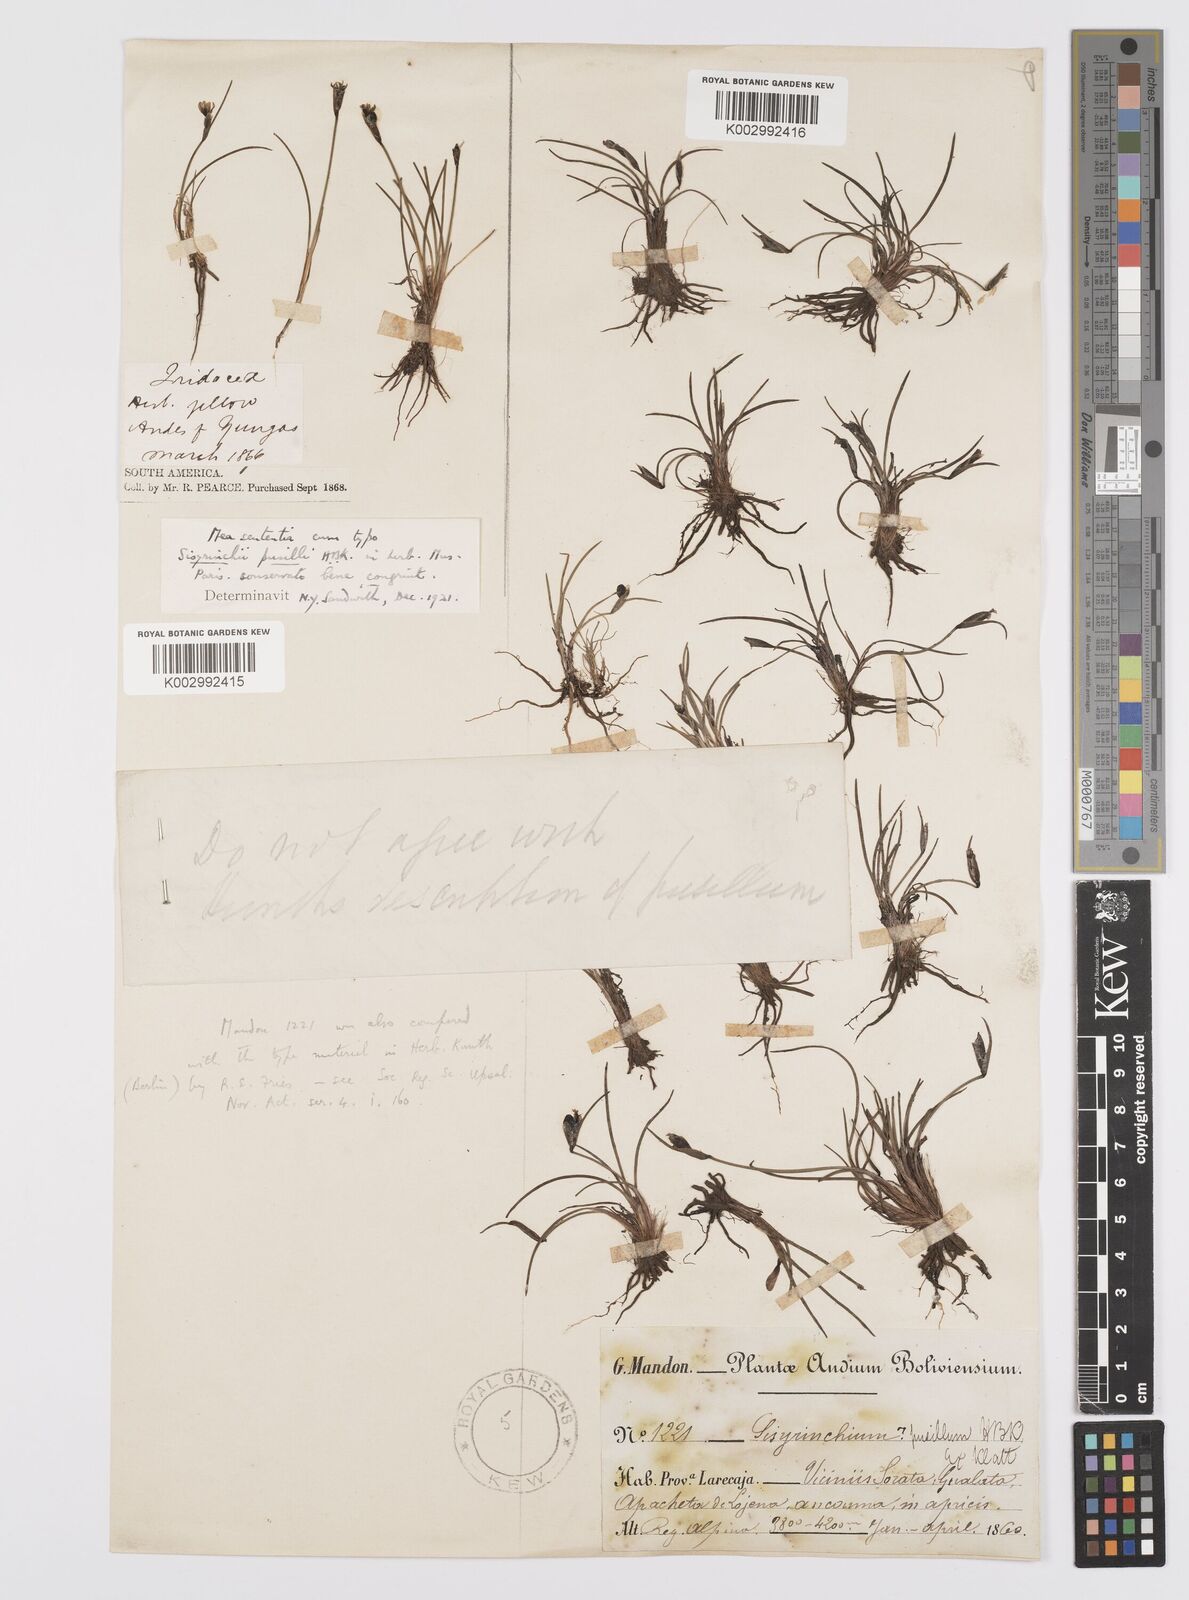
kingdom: Plantae
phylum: Tracheophyta
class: Liliopsida
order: Asparagales
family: Iridaceae
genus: Sisyrinchium
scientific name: Sisyrinchium pusillum
